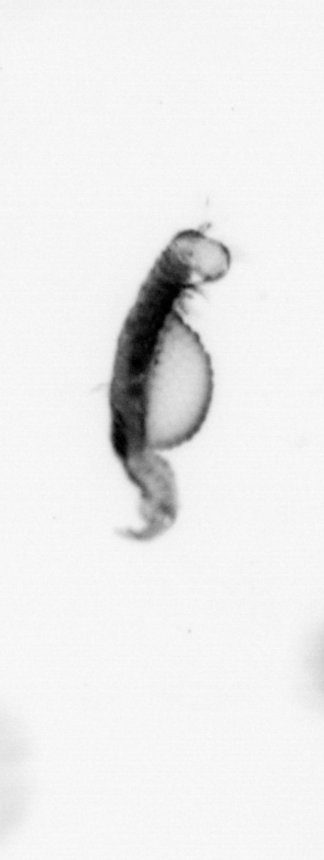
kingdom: Animalia
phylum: Annelida
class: Polychaeta
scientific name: Polychaeta
